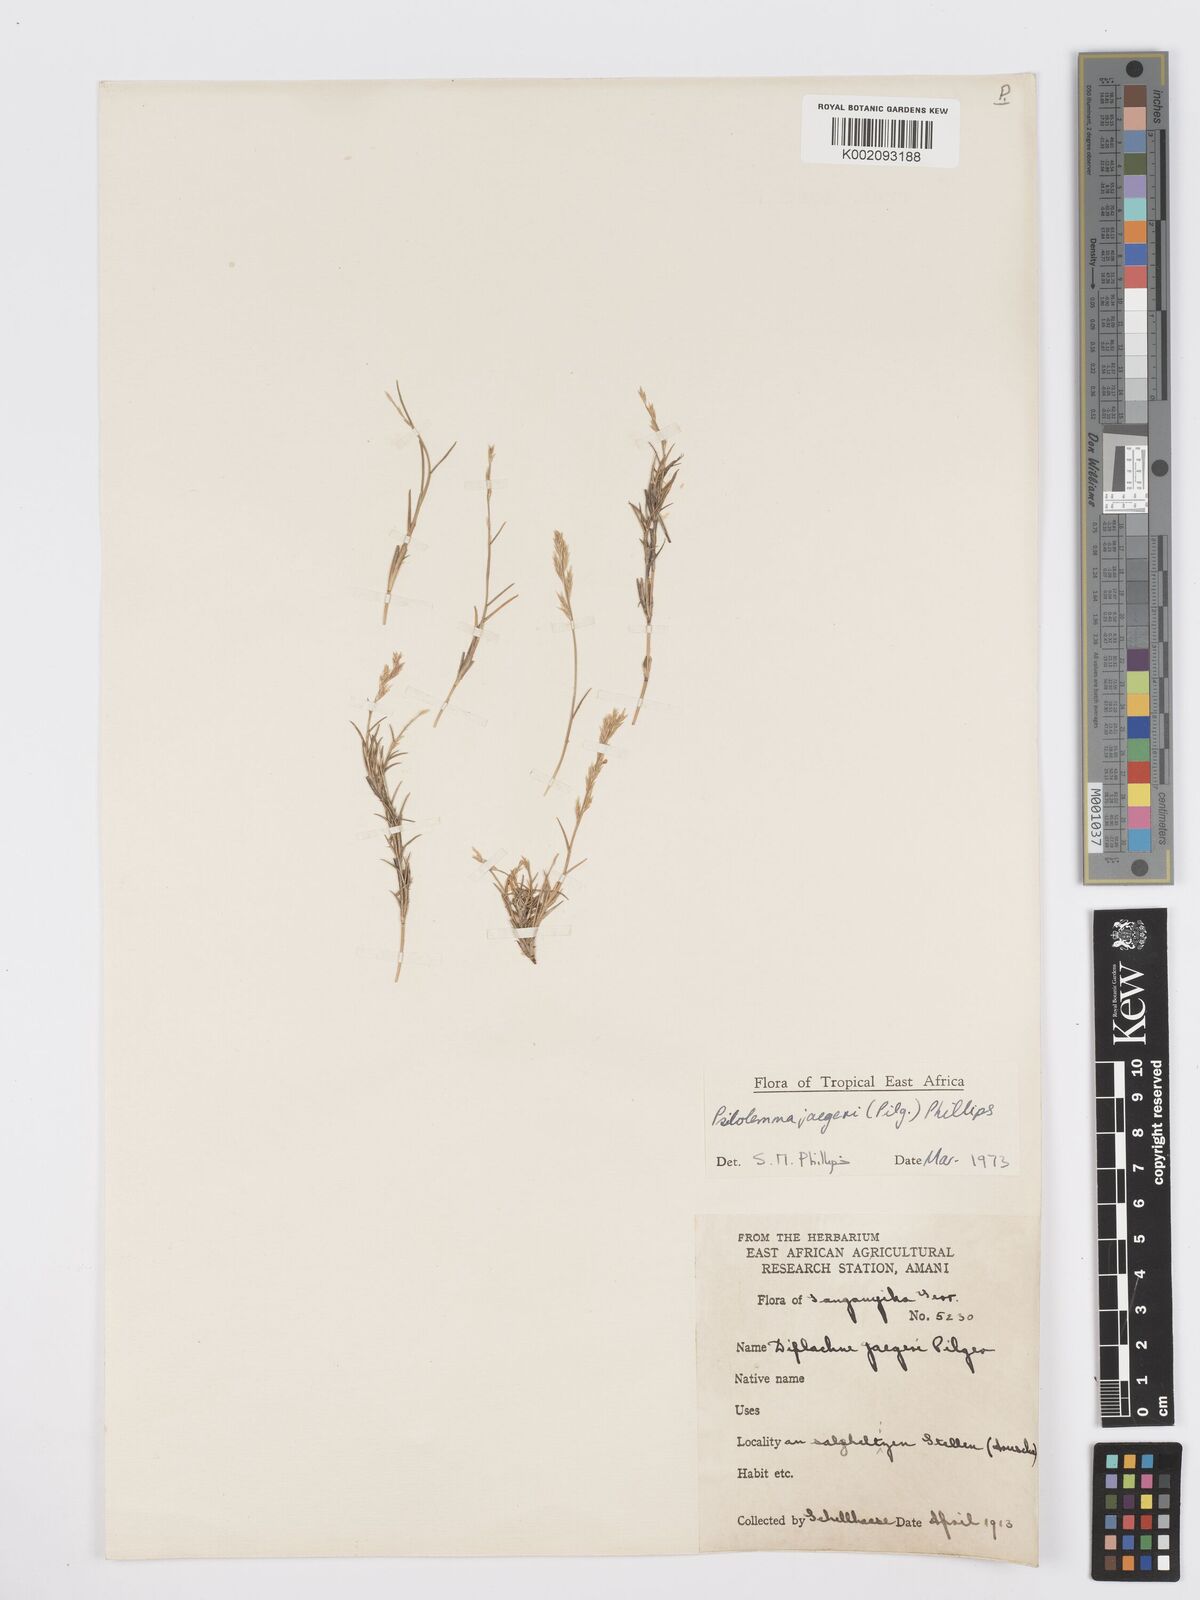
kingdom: Plantae
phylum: Tracheophyta
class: Liliopsida
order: Poales
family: Poaceae
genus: Psilolemma
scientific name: Psilolemma jaegeri
